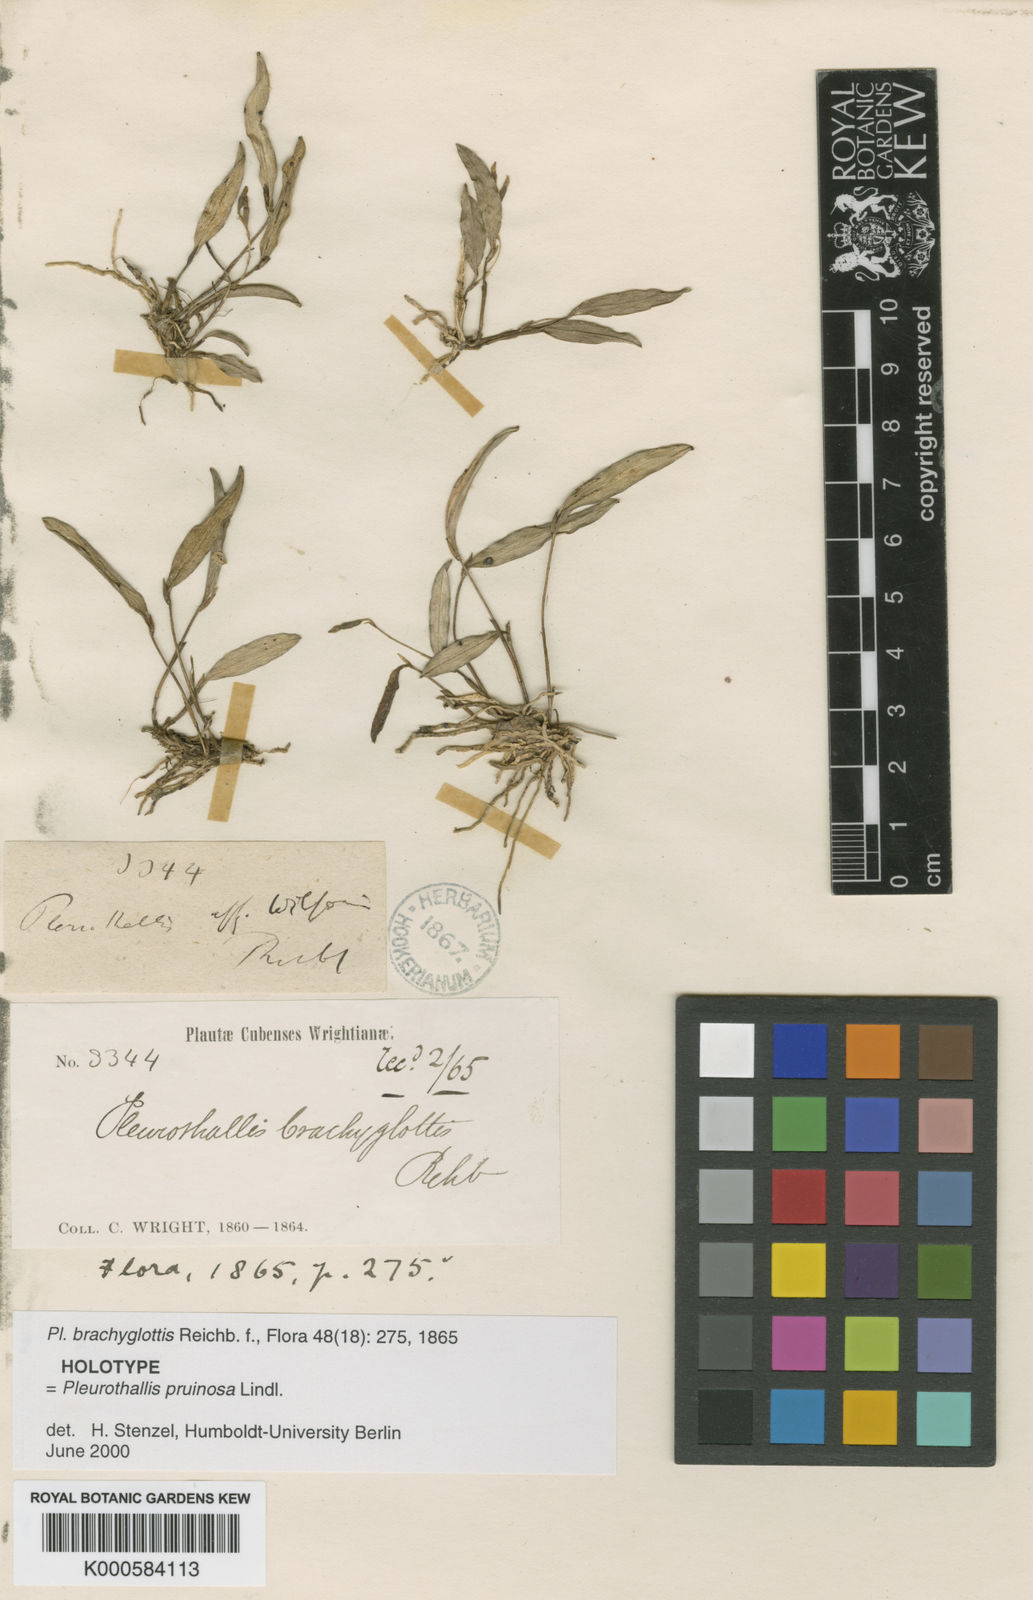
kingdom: Plantae
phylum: Tracheophyta
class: Liliopsida
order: Asparagales
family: Orchidaceae
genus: Pleurothallis
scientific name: Pleurothallis pruinosa
